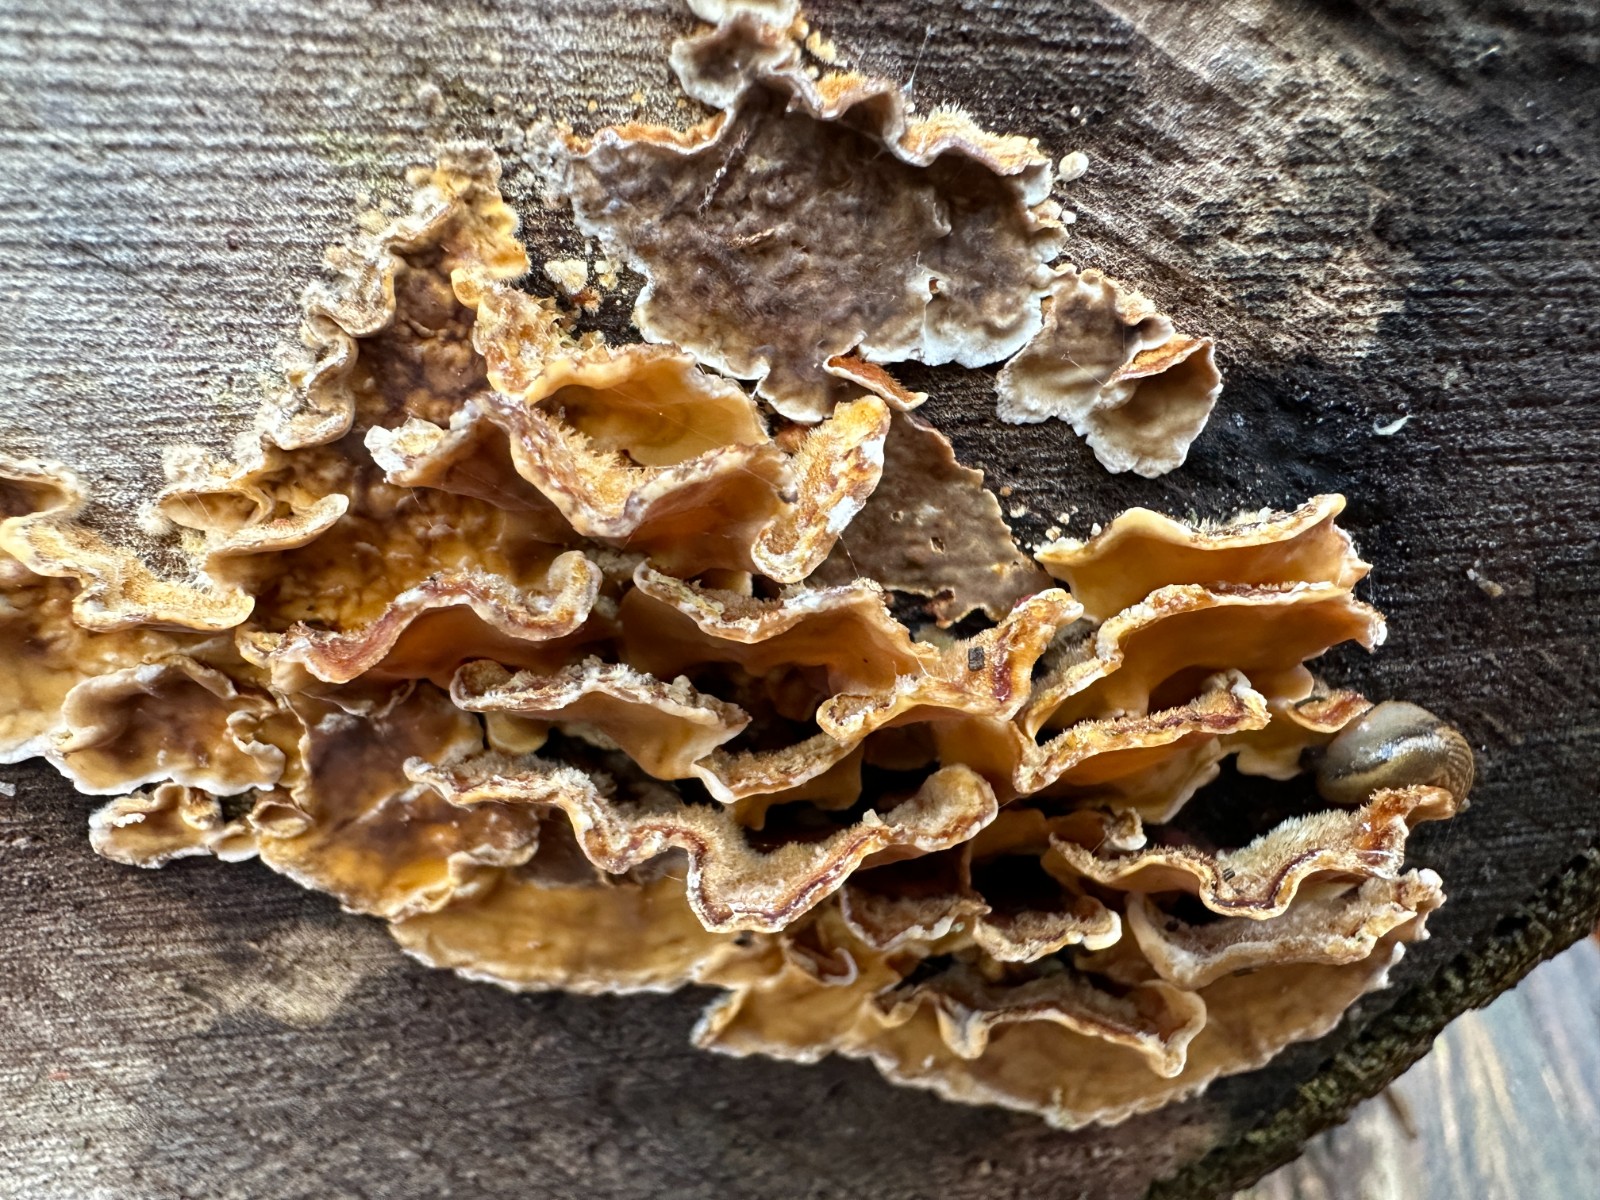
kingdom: Fungi
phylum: Basidiomycota
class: Agaricomycetes
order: Russulales
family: Stereaceae
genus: Stereum
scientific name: Stereum hirsutum
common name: håret lædersvamp
